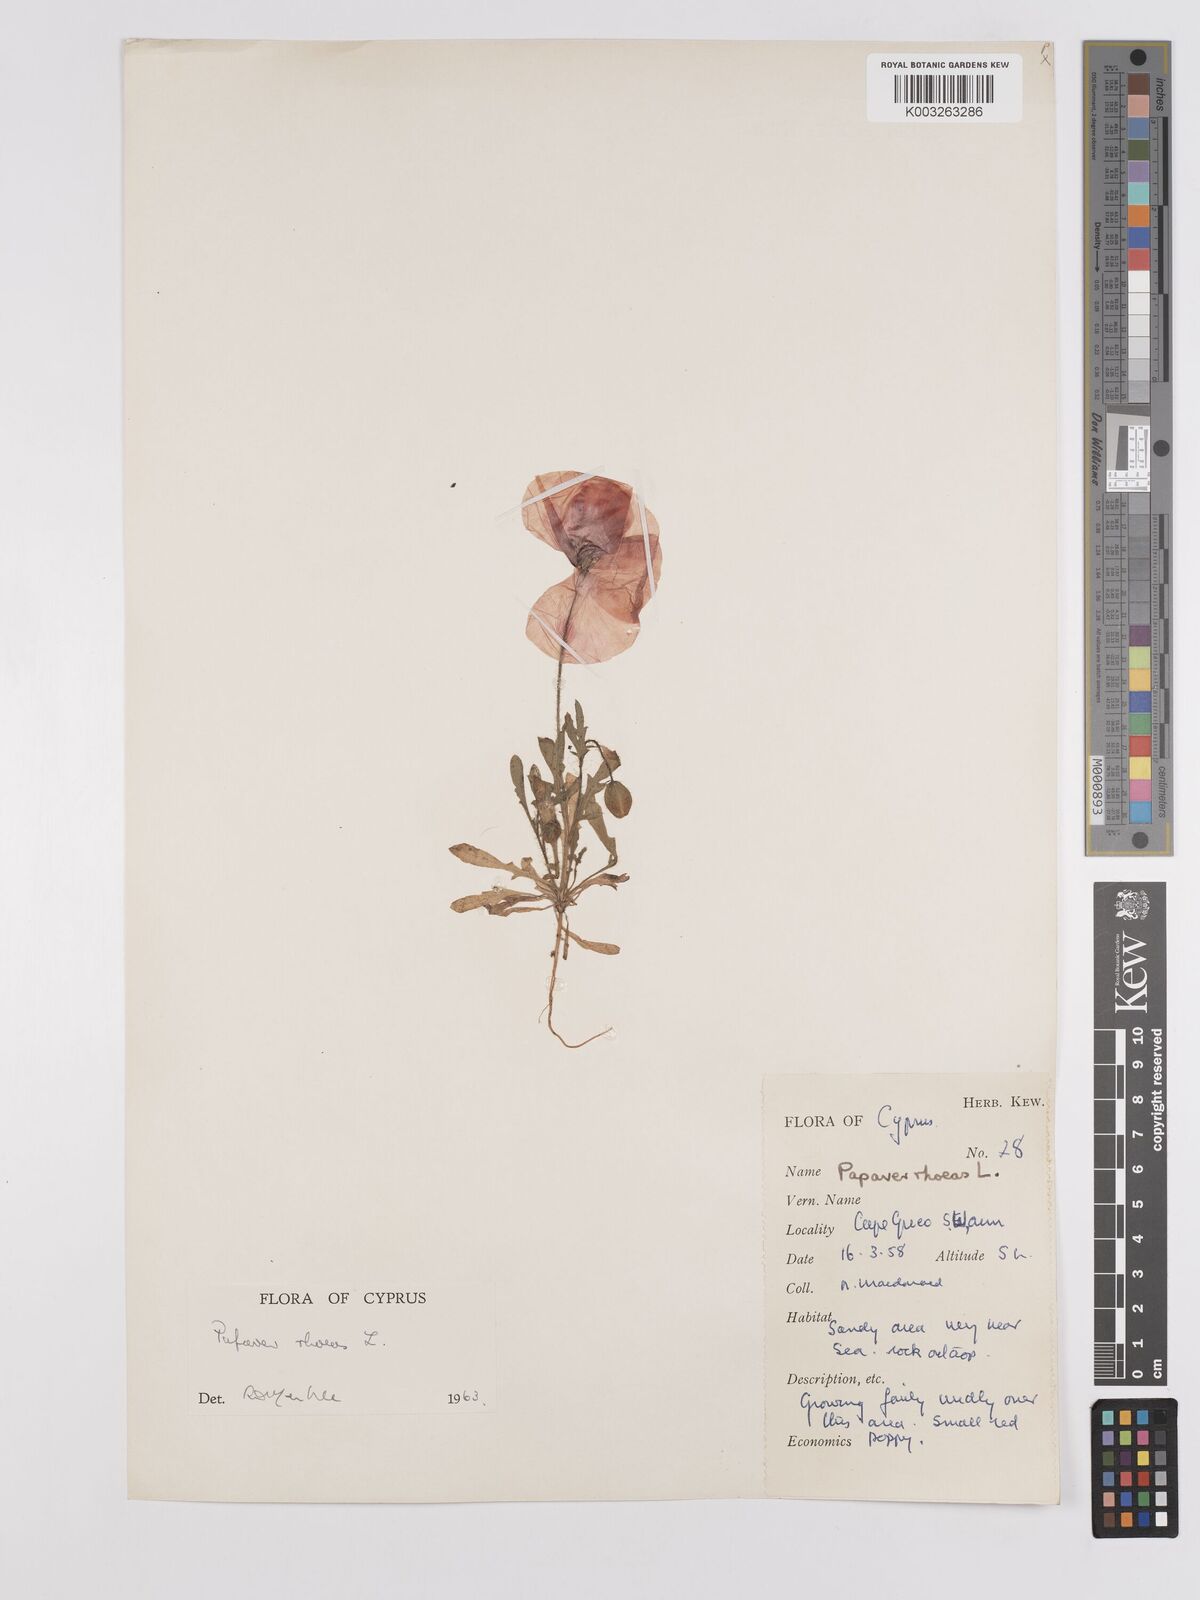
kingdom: Plantae
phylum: Tracheophyta
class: Magnoliopsida
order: Ranunculales
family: Papaveraceae
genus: Papaver
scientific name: Papaver rhoeas
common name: Corn poppy
